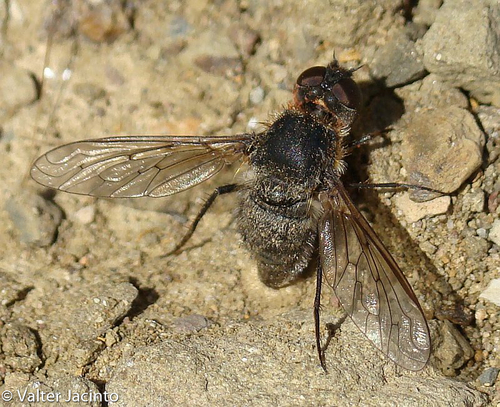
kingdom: Animalia
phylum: Arthropoda
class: Insecta
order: Diptera
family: Bombyliidae
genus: Anthrax
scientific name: Anthrax
